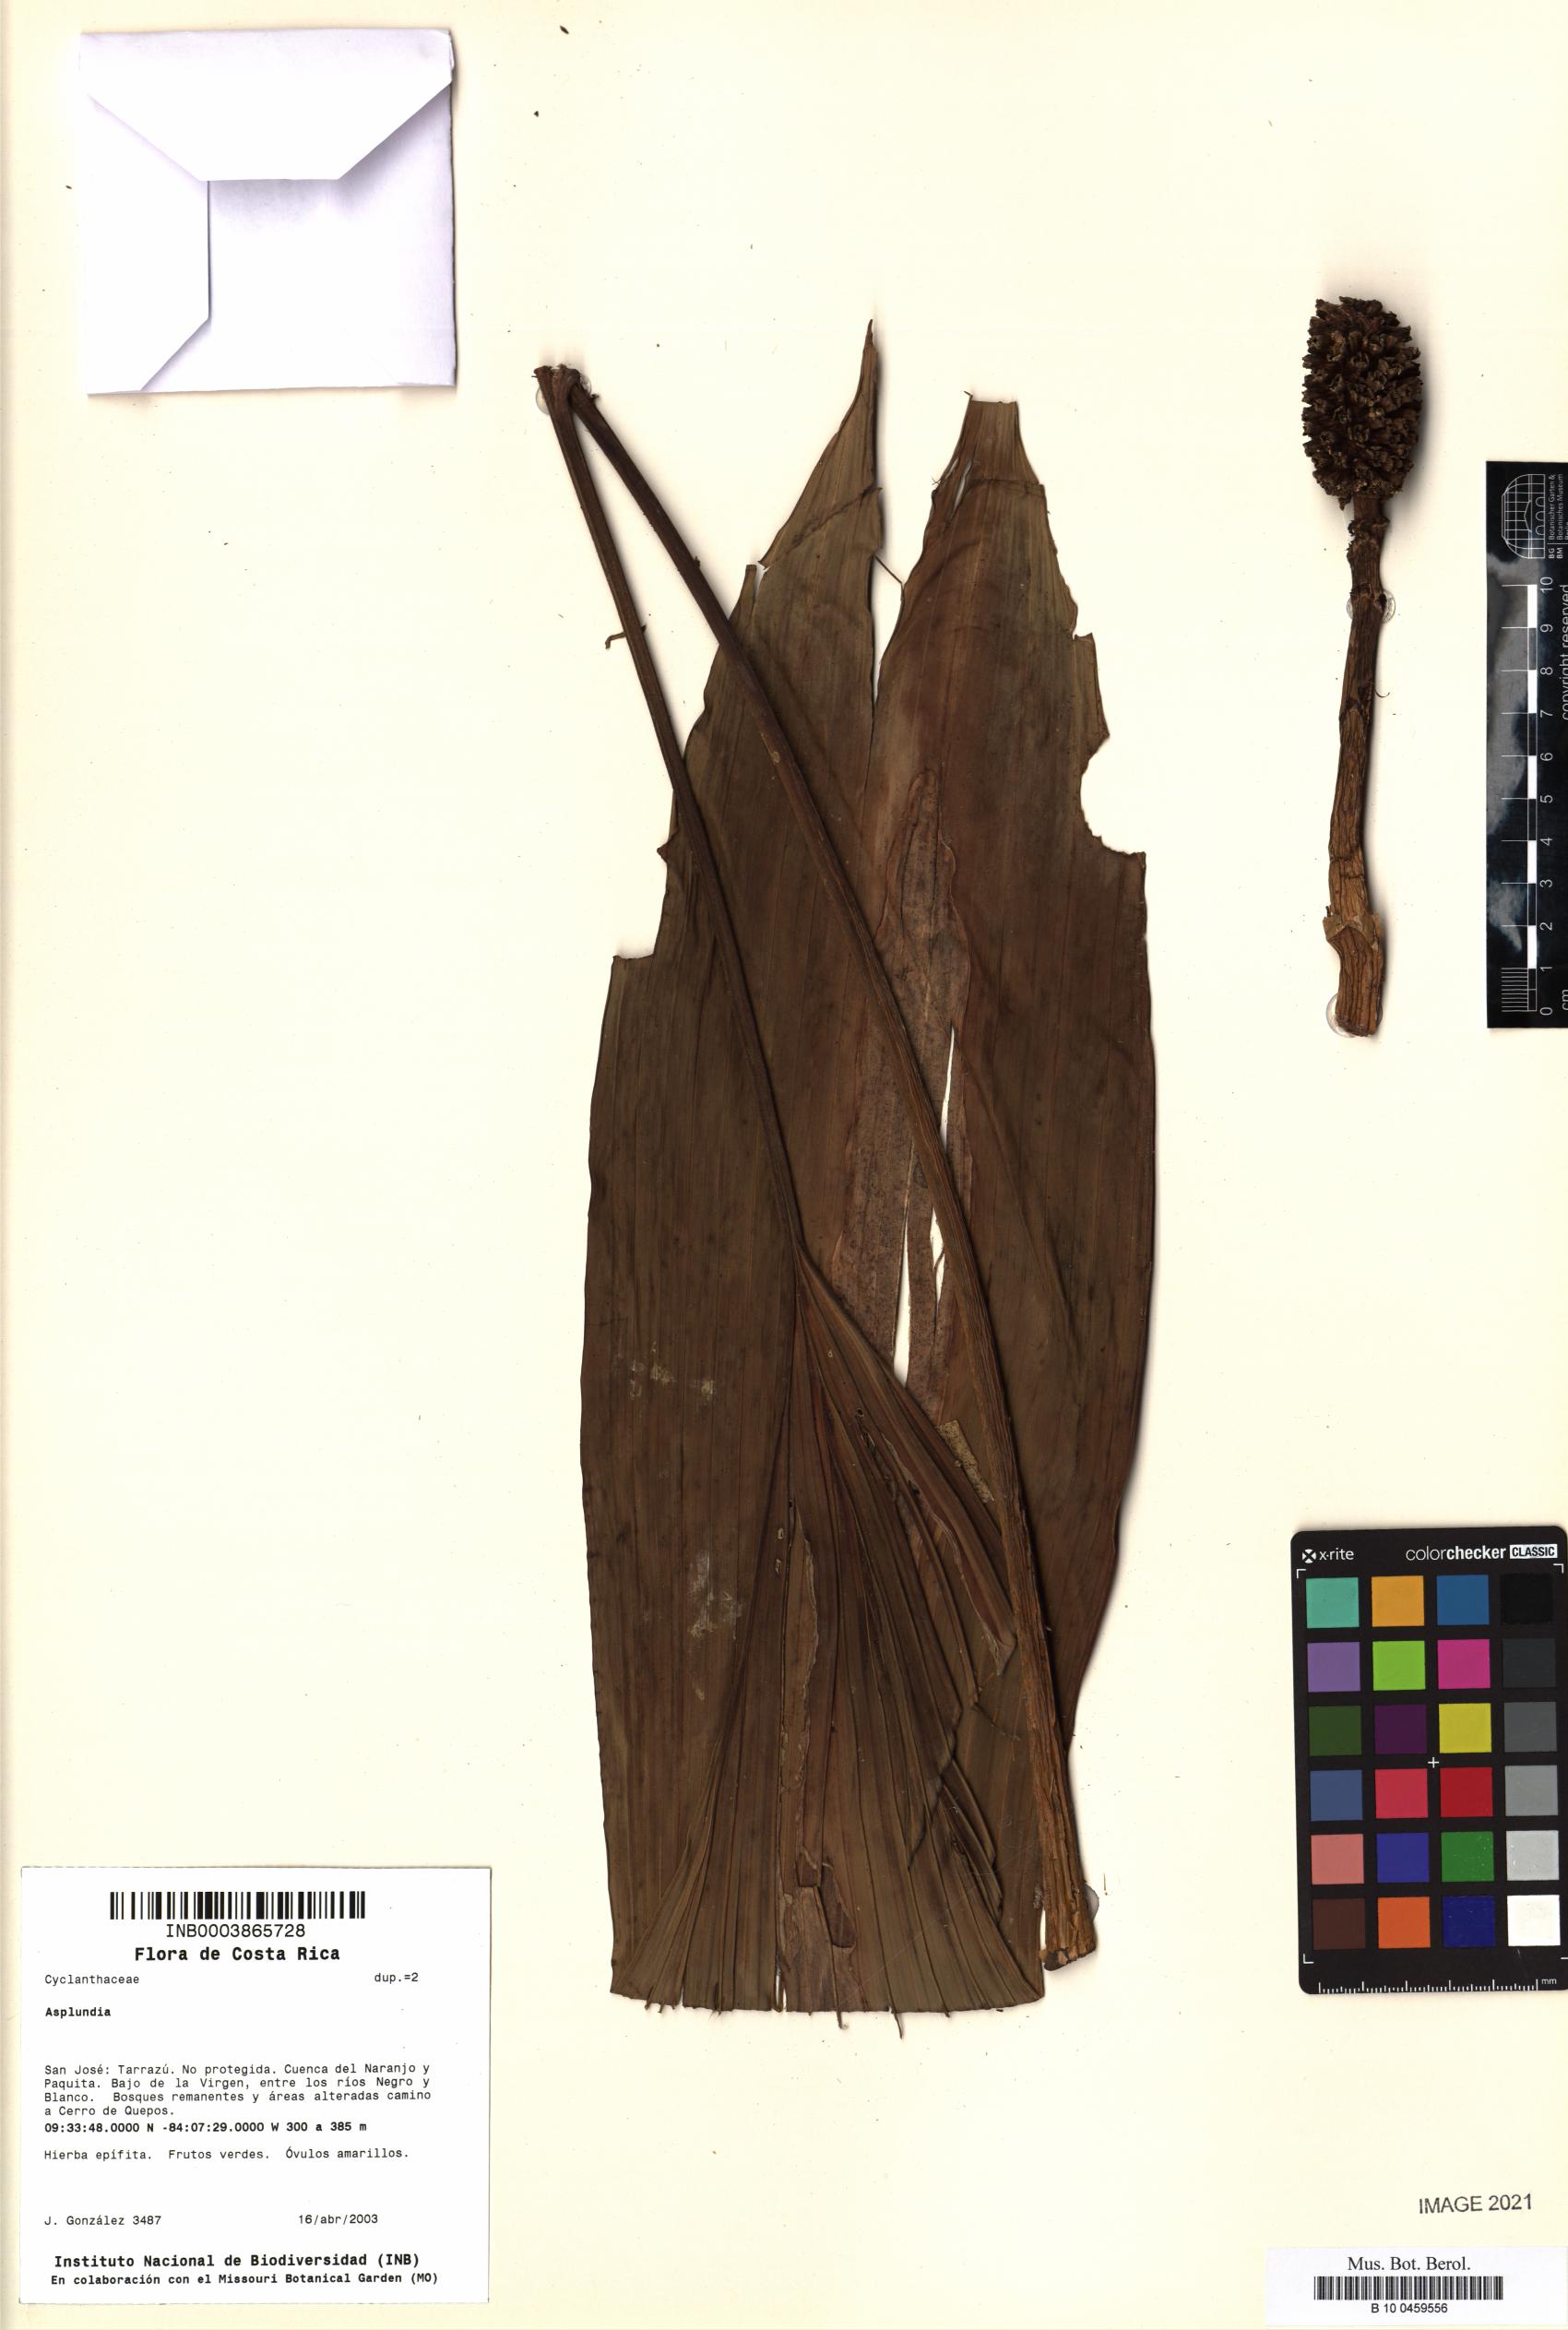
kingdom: Plantae
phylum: Tracheophyta
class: Liliopsida
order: Pandanales
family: Cyclanthaceae
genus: Asplundia
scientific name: Asplundia
